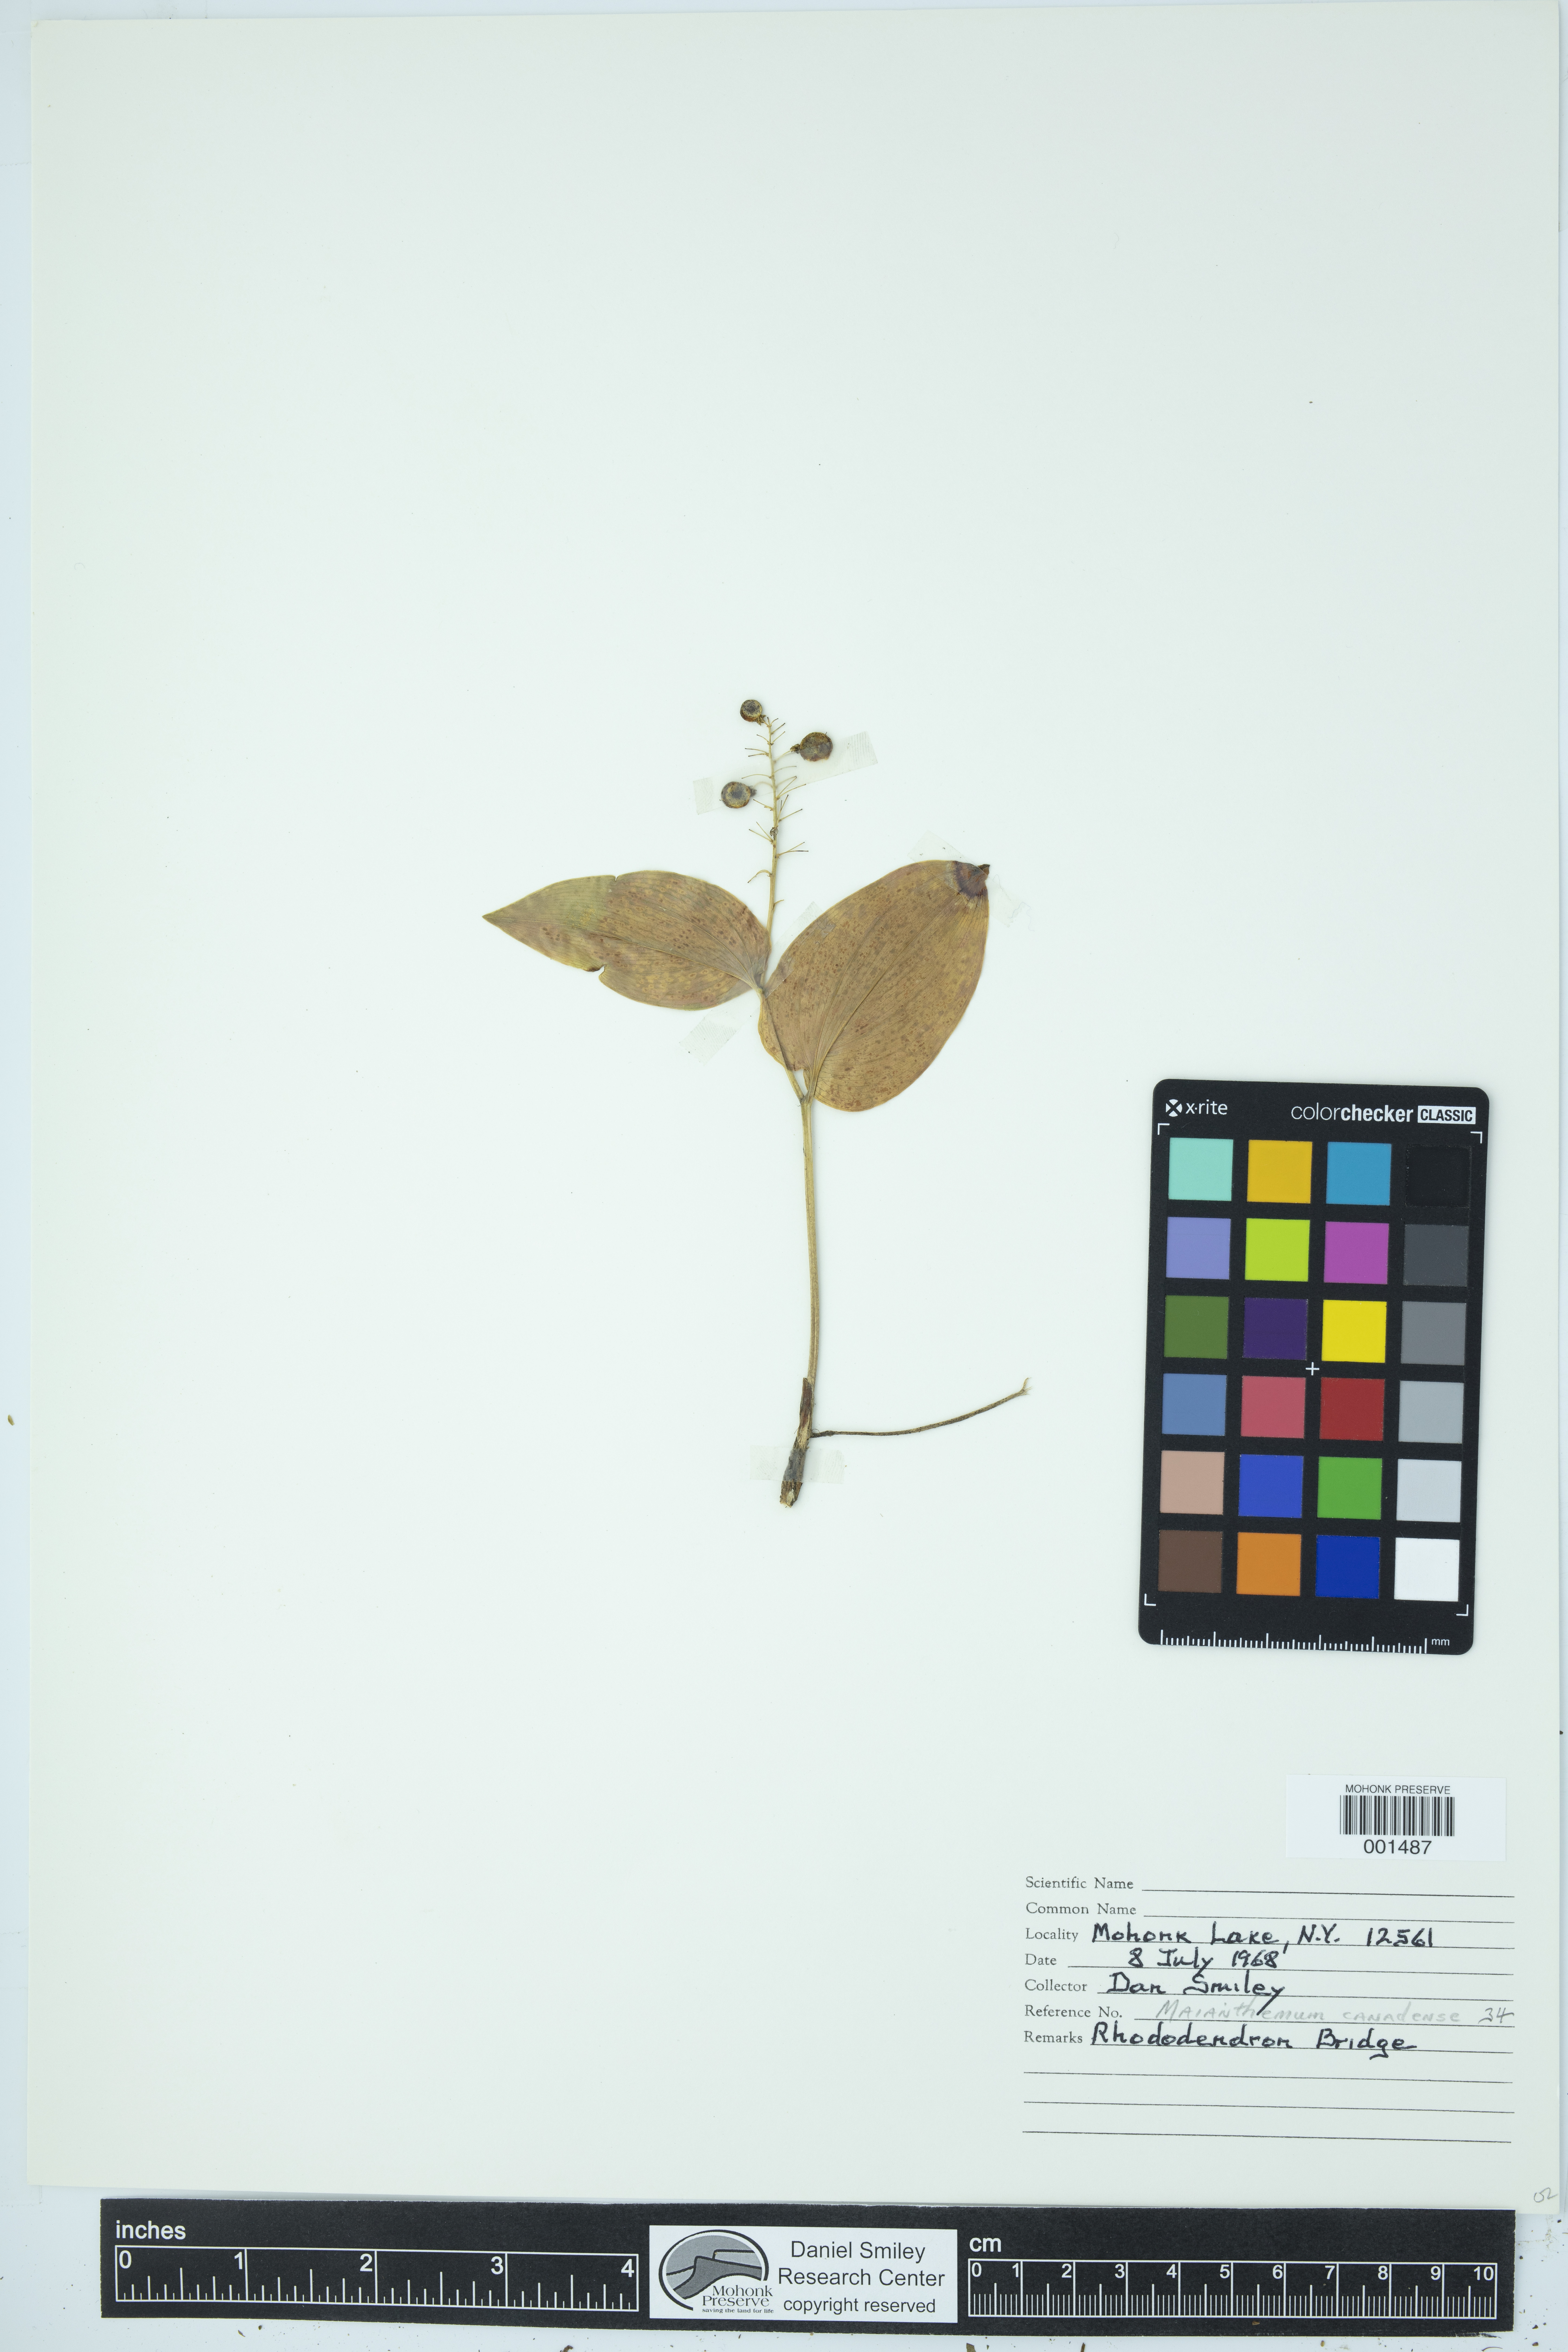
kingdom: Plantae
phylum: Tracheophyta
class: Liliopsida
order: Asparagales
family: Asparagaceae
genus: Maianthemum
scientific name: Maianthemum canadense
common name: False lily-of-the-valley
